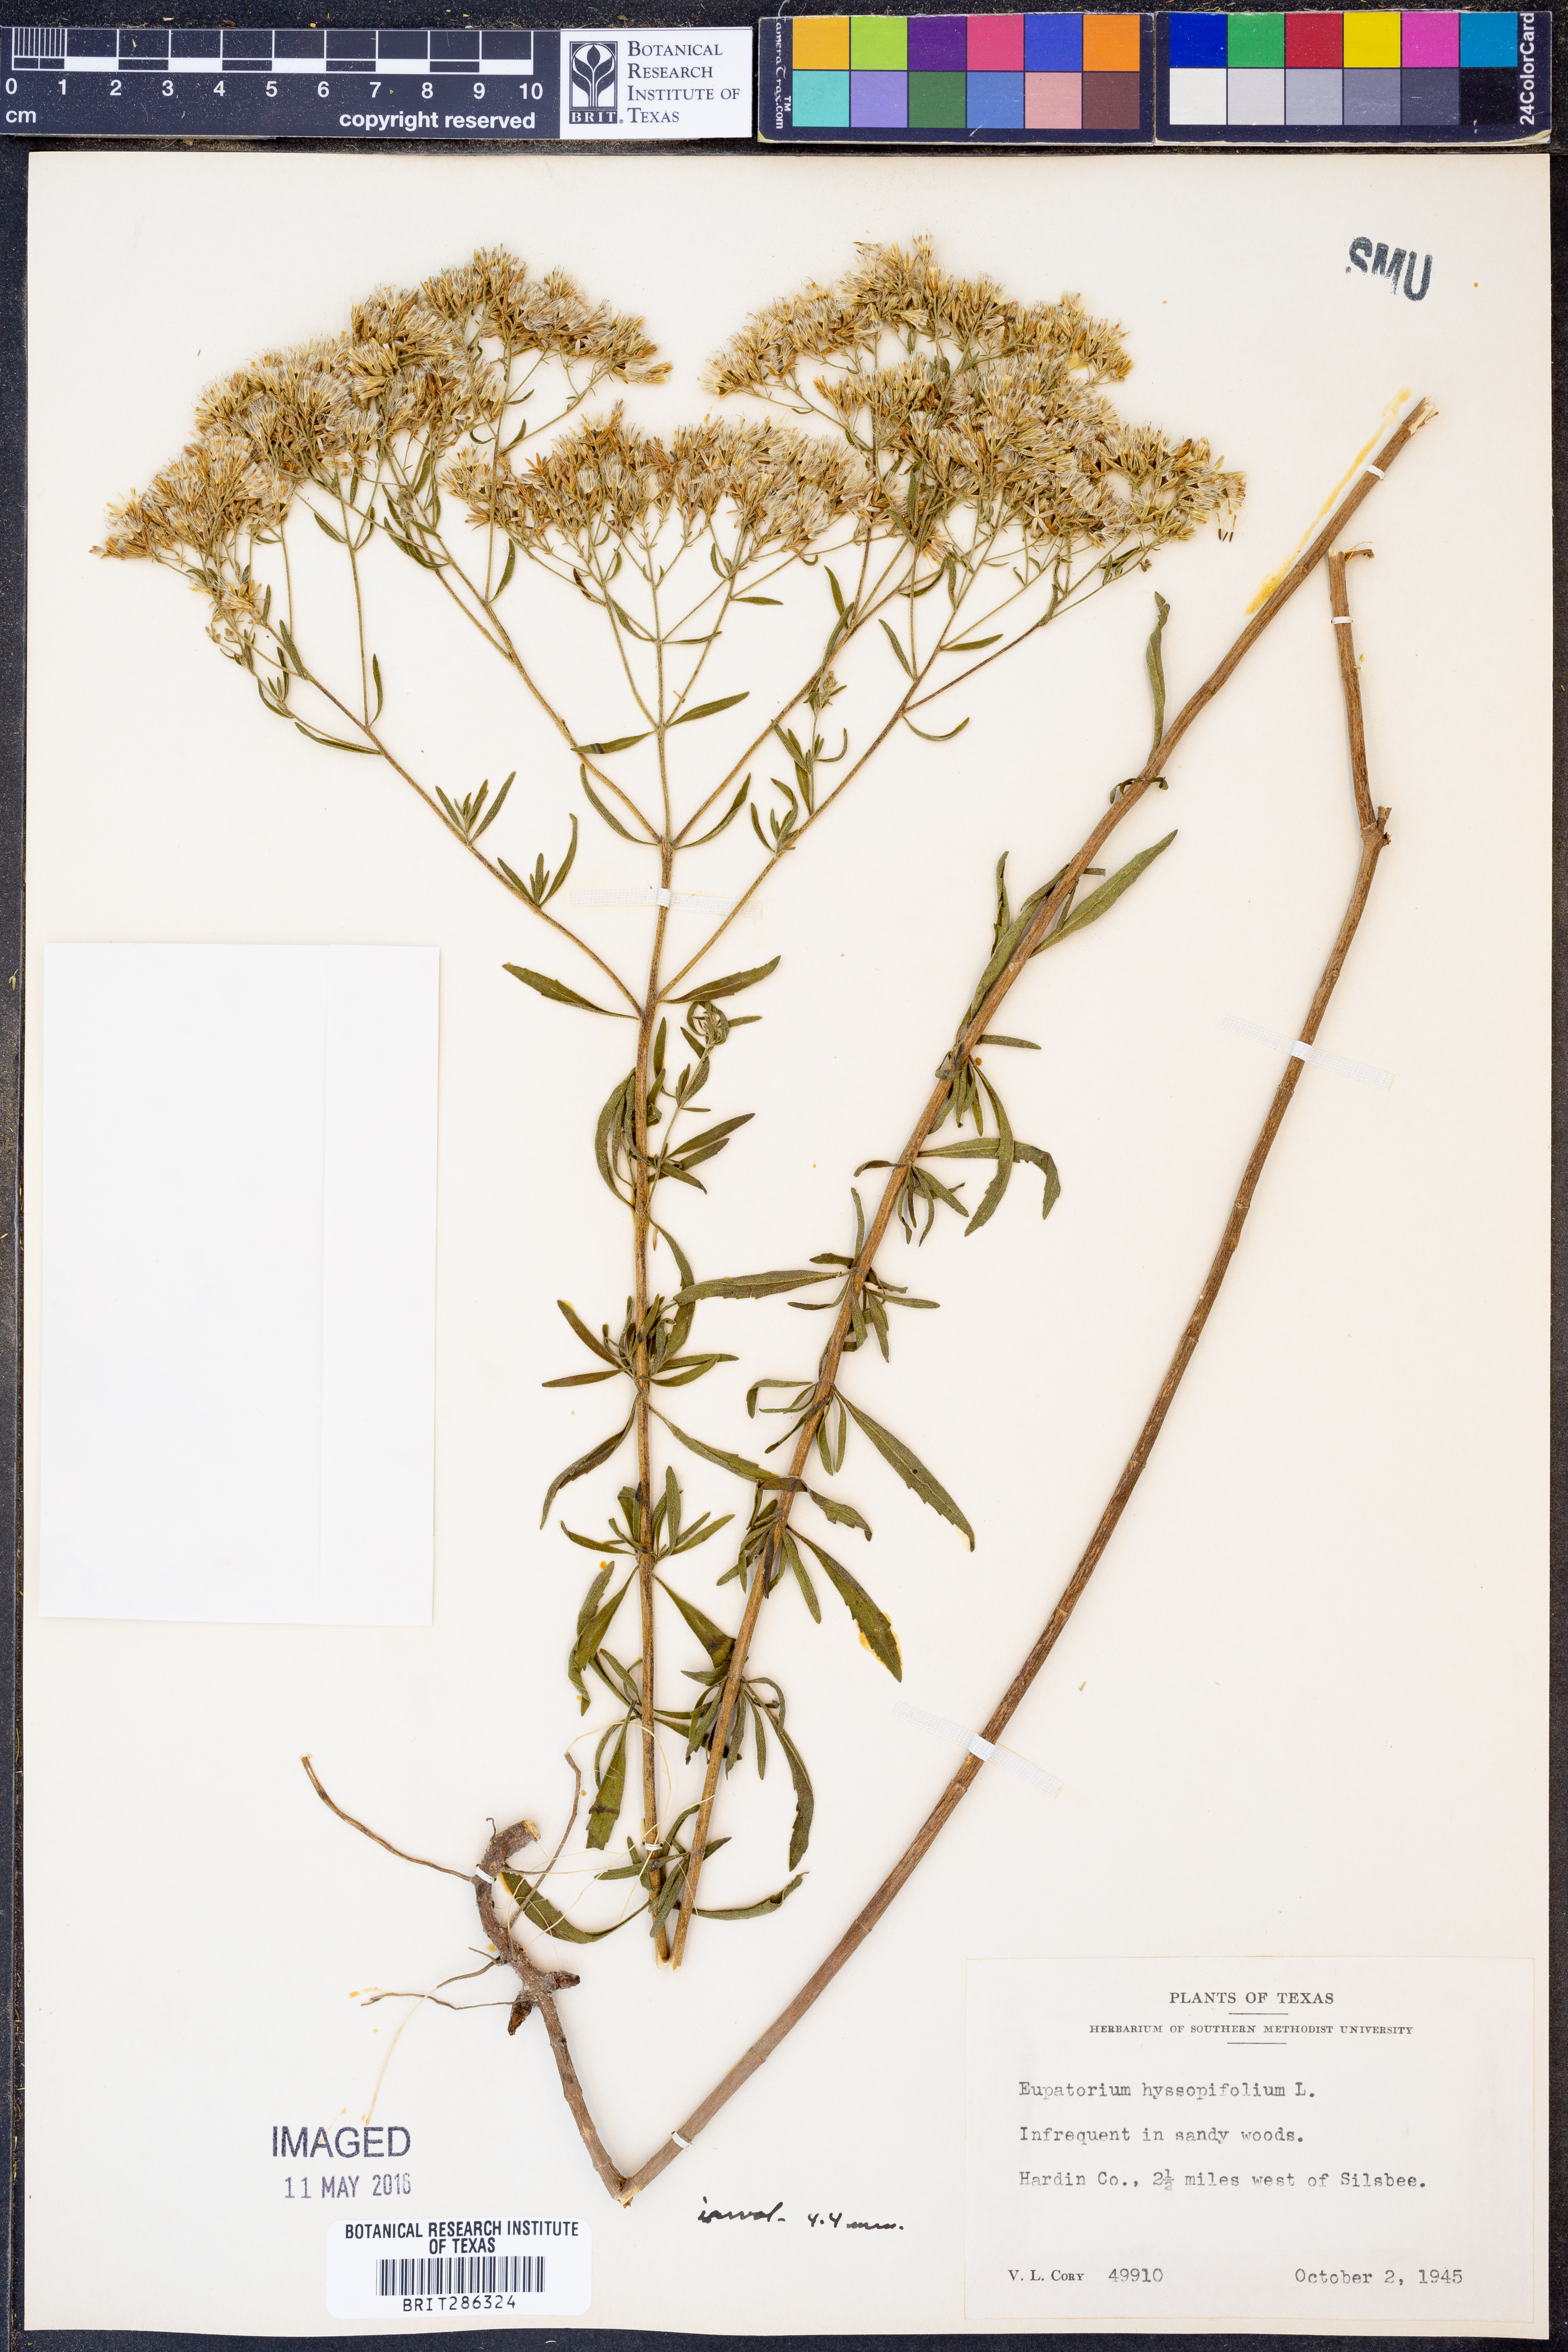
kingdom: Plantae
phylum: Tracheophyta
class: Magnoliopsida
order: Asterales
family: Asteraceae
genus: Eupatorium
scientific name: Eupatorium hyssopifolium
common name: Hyssop-leaf thoroughwort
